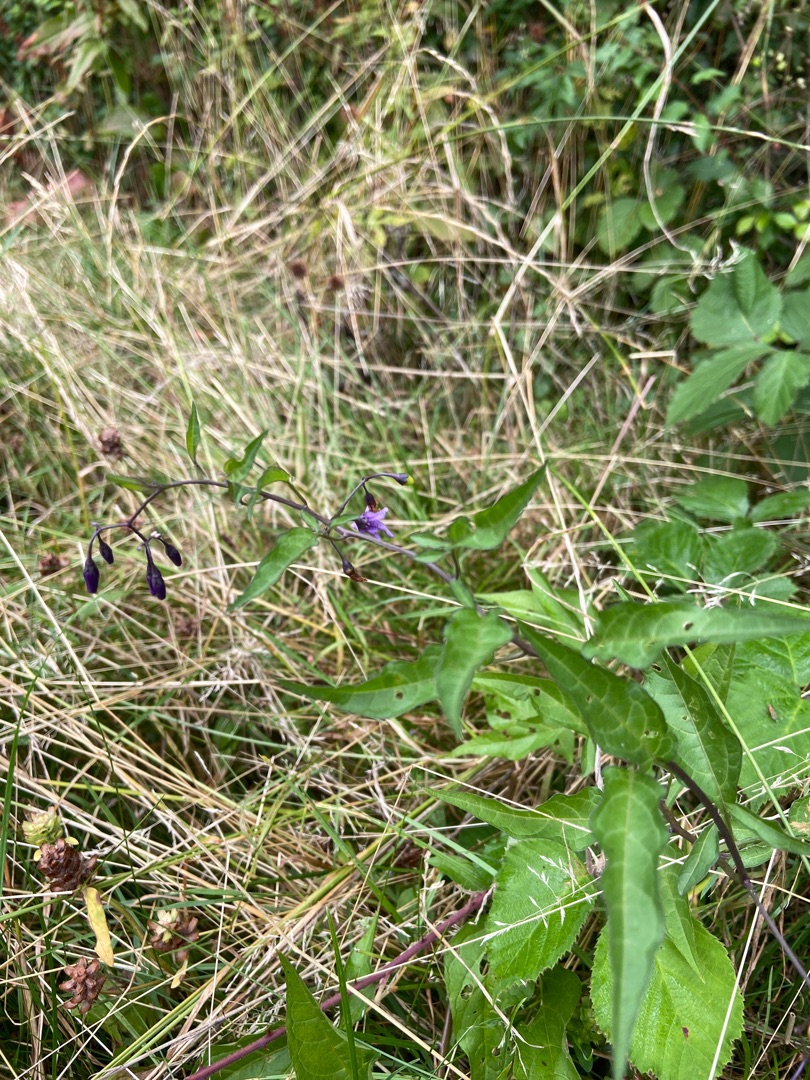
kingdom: Plantae
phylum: Tracheophyta
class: Magnoliopsida
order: Solanales
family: Solanaceae
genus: Solanum
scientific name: Solanum dulcamara
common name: Bittersød natskygge
